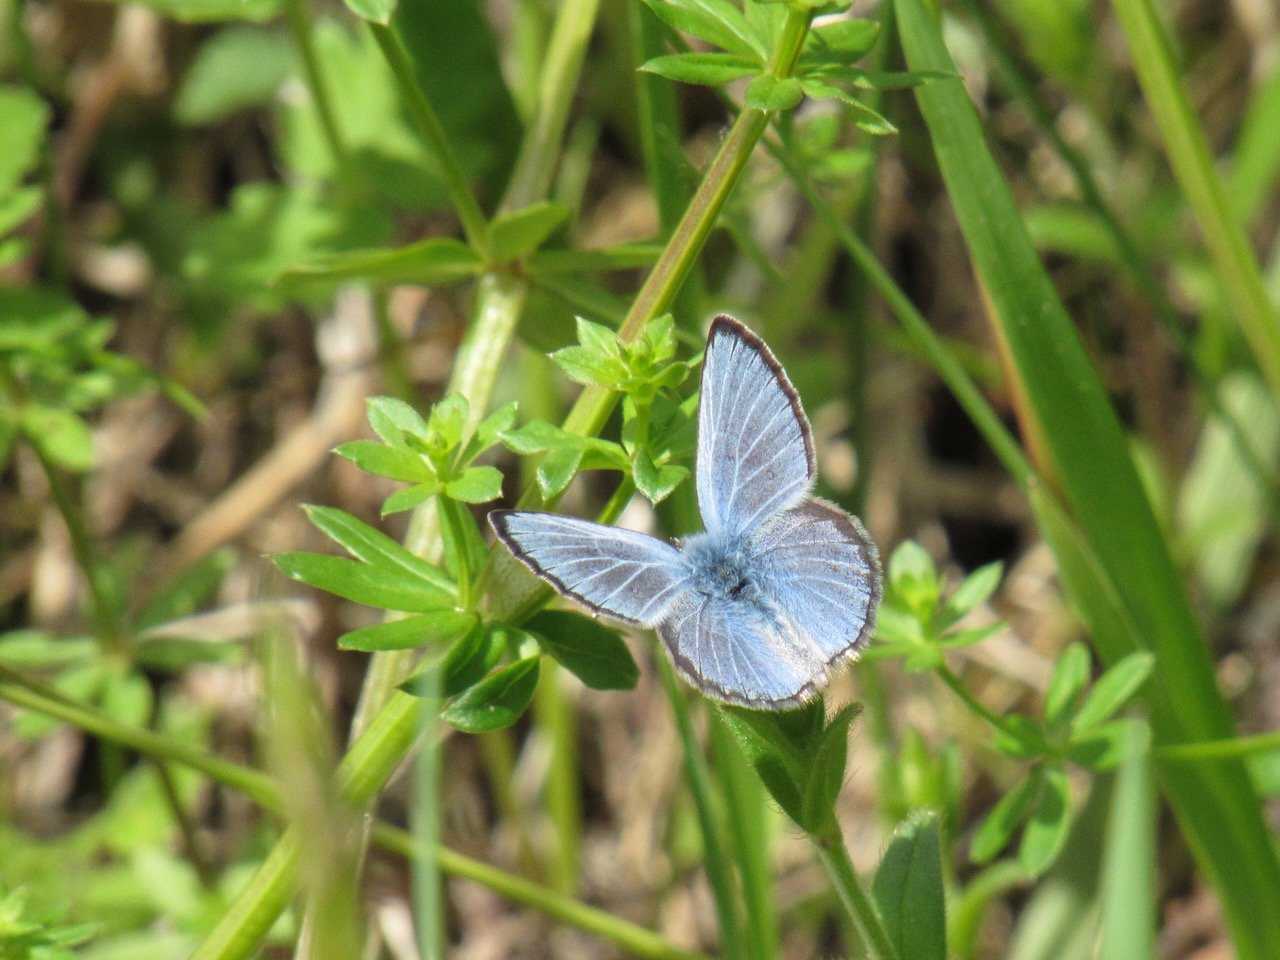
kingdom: Animalia
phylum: Arthropoda
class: Insecta
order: Lepidoptera
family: Lycaenidae
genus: Glaucopsyche
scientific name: Glaucopsyche lygdamus
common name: Silvery Blue
